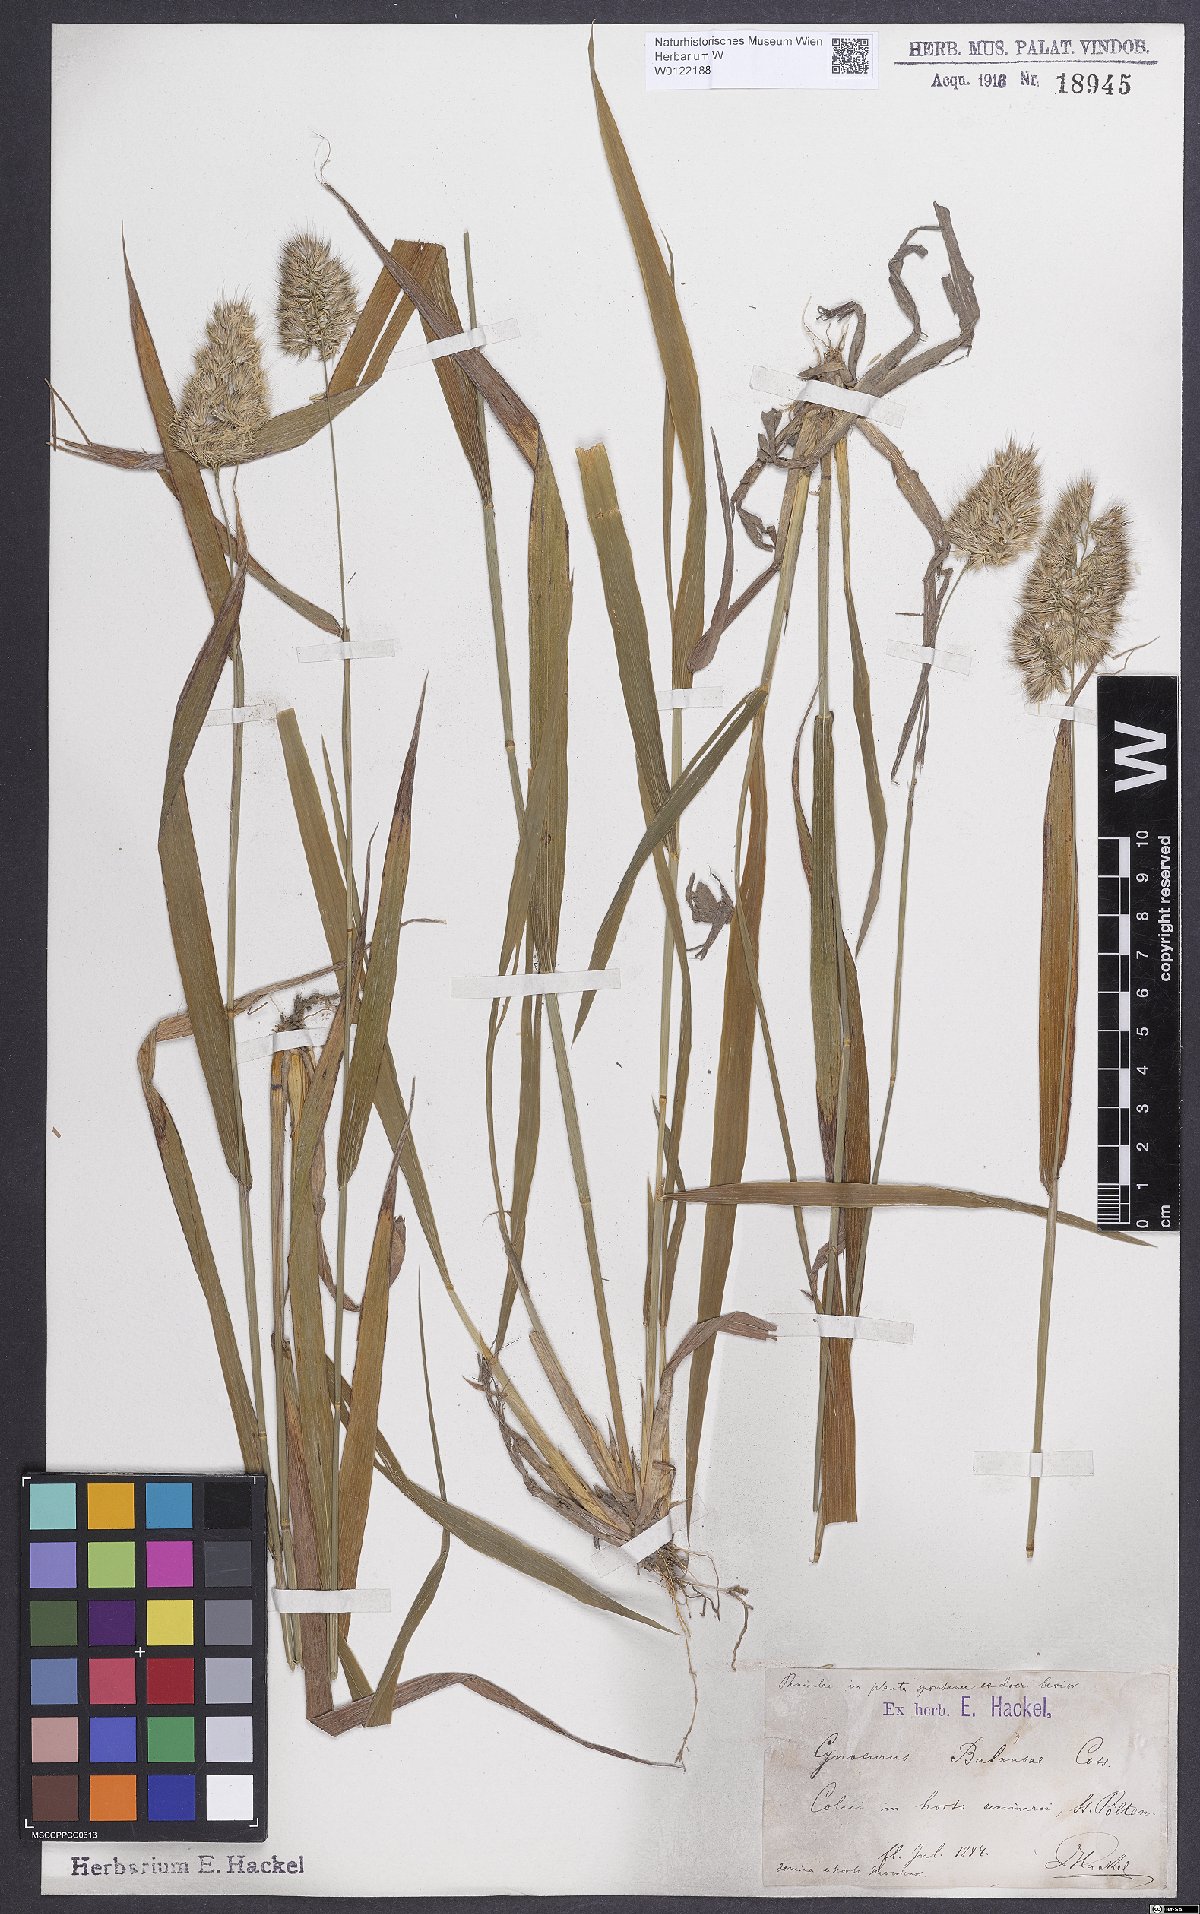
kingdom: Plantae
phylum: Tracheophyta
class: Liliopsida
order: Poales
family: Poaceae
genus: Cynosurus
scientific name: Cynosurus balansae
